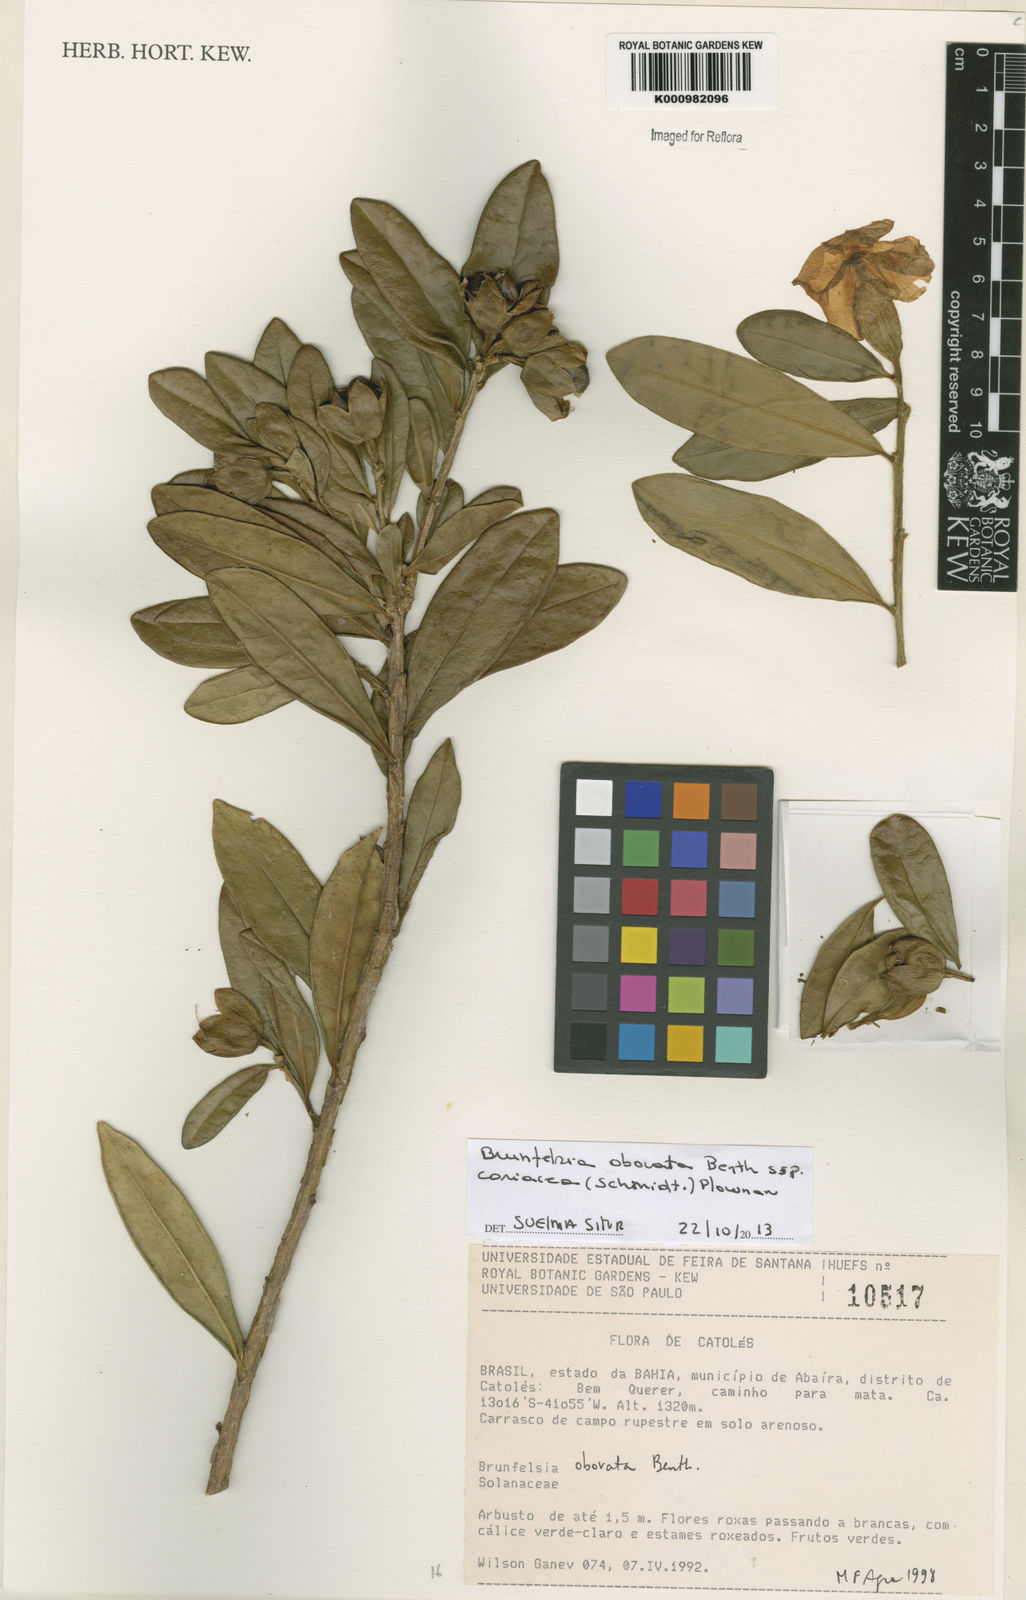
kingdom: Plantae
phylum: Tracheophyta
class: Magnoliopsida
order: Solanales
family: Solanaceae
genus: Brunfelsia
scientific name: Brunfelsia obovata
